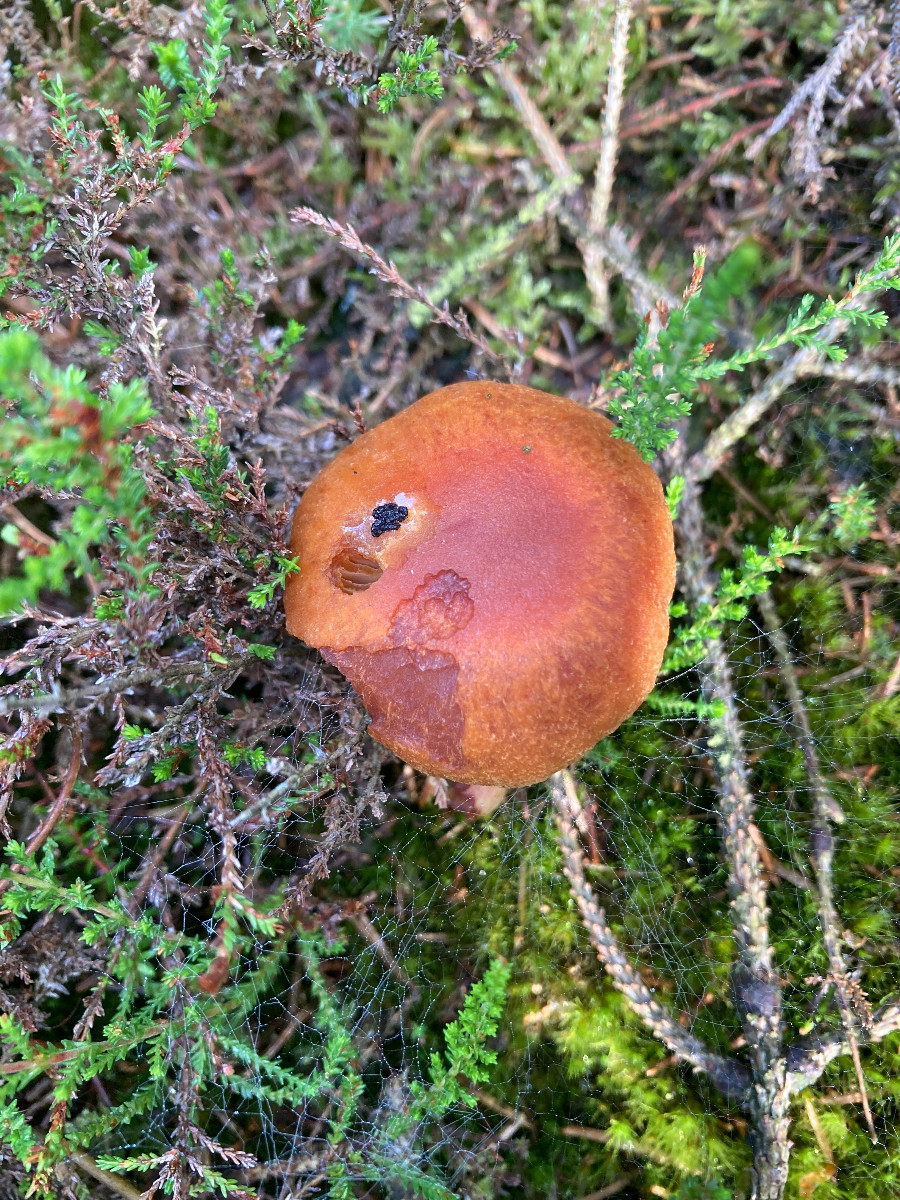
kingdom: Fungi
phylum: Basidiomycota
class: Agaricomycetes
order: Agaricales
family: Cortinariaceae
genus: Aureonarius
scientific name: Aureonarius limonius
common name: orangegul slørhat
